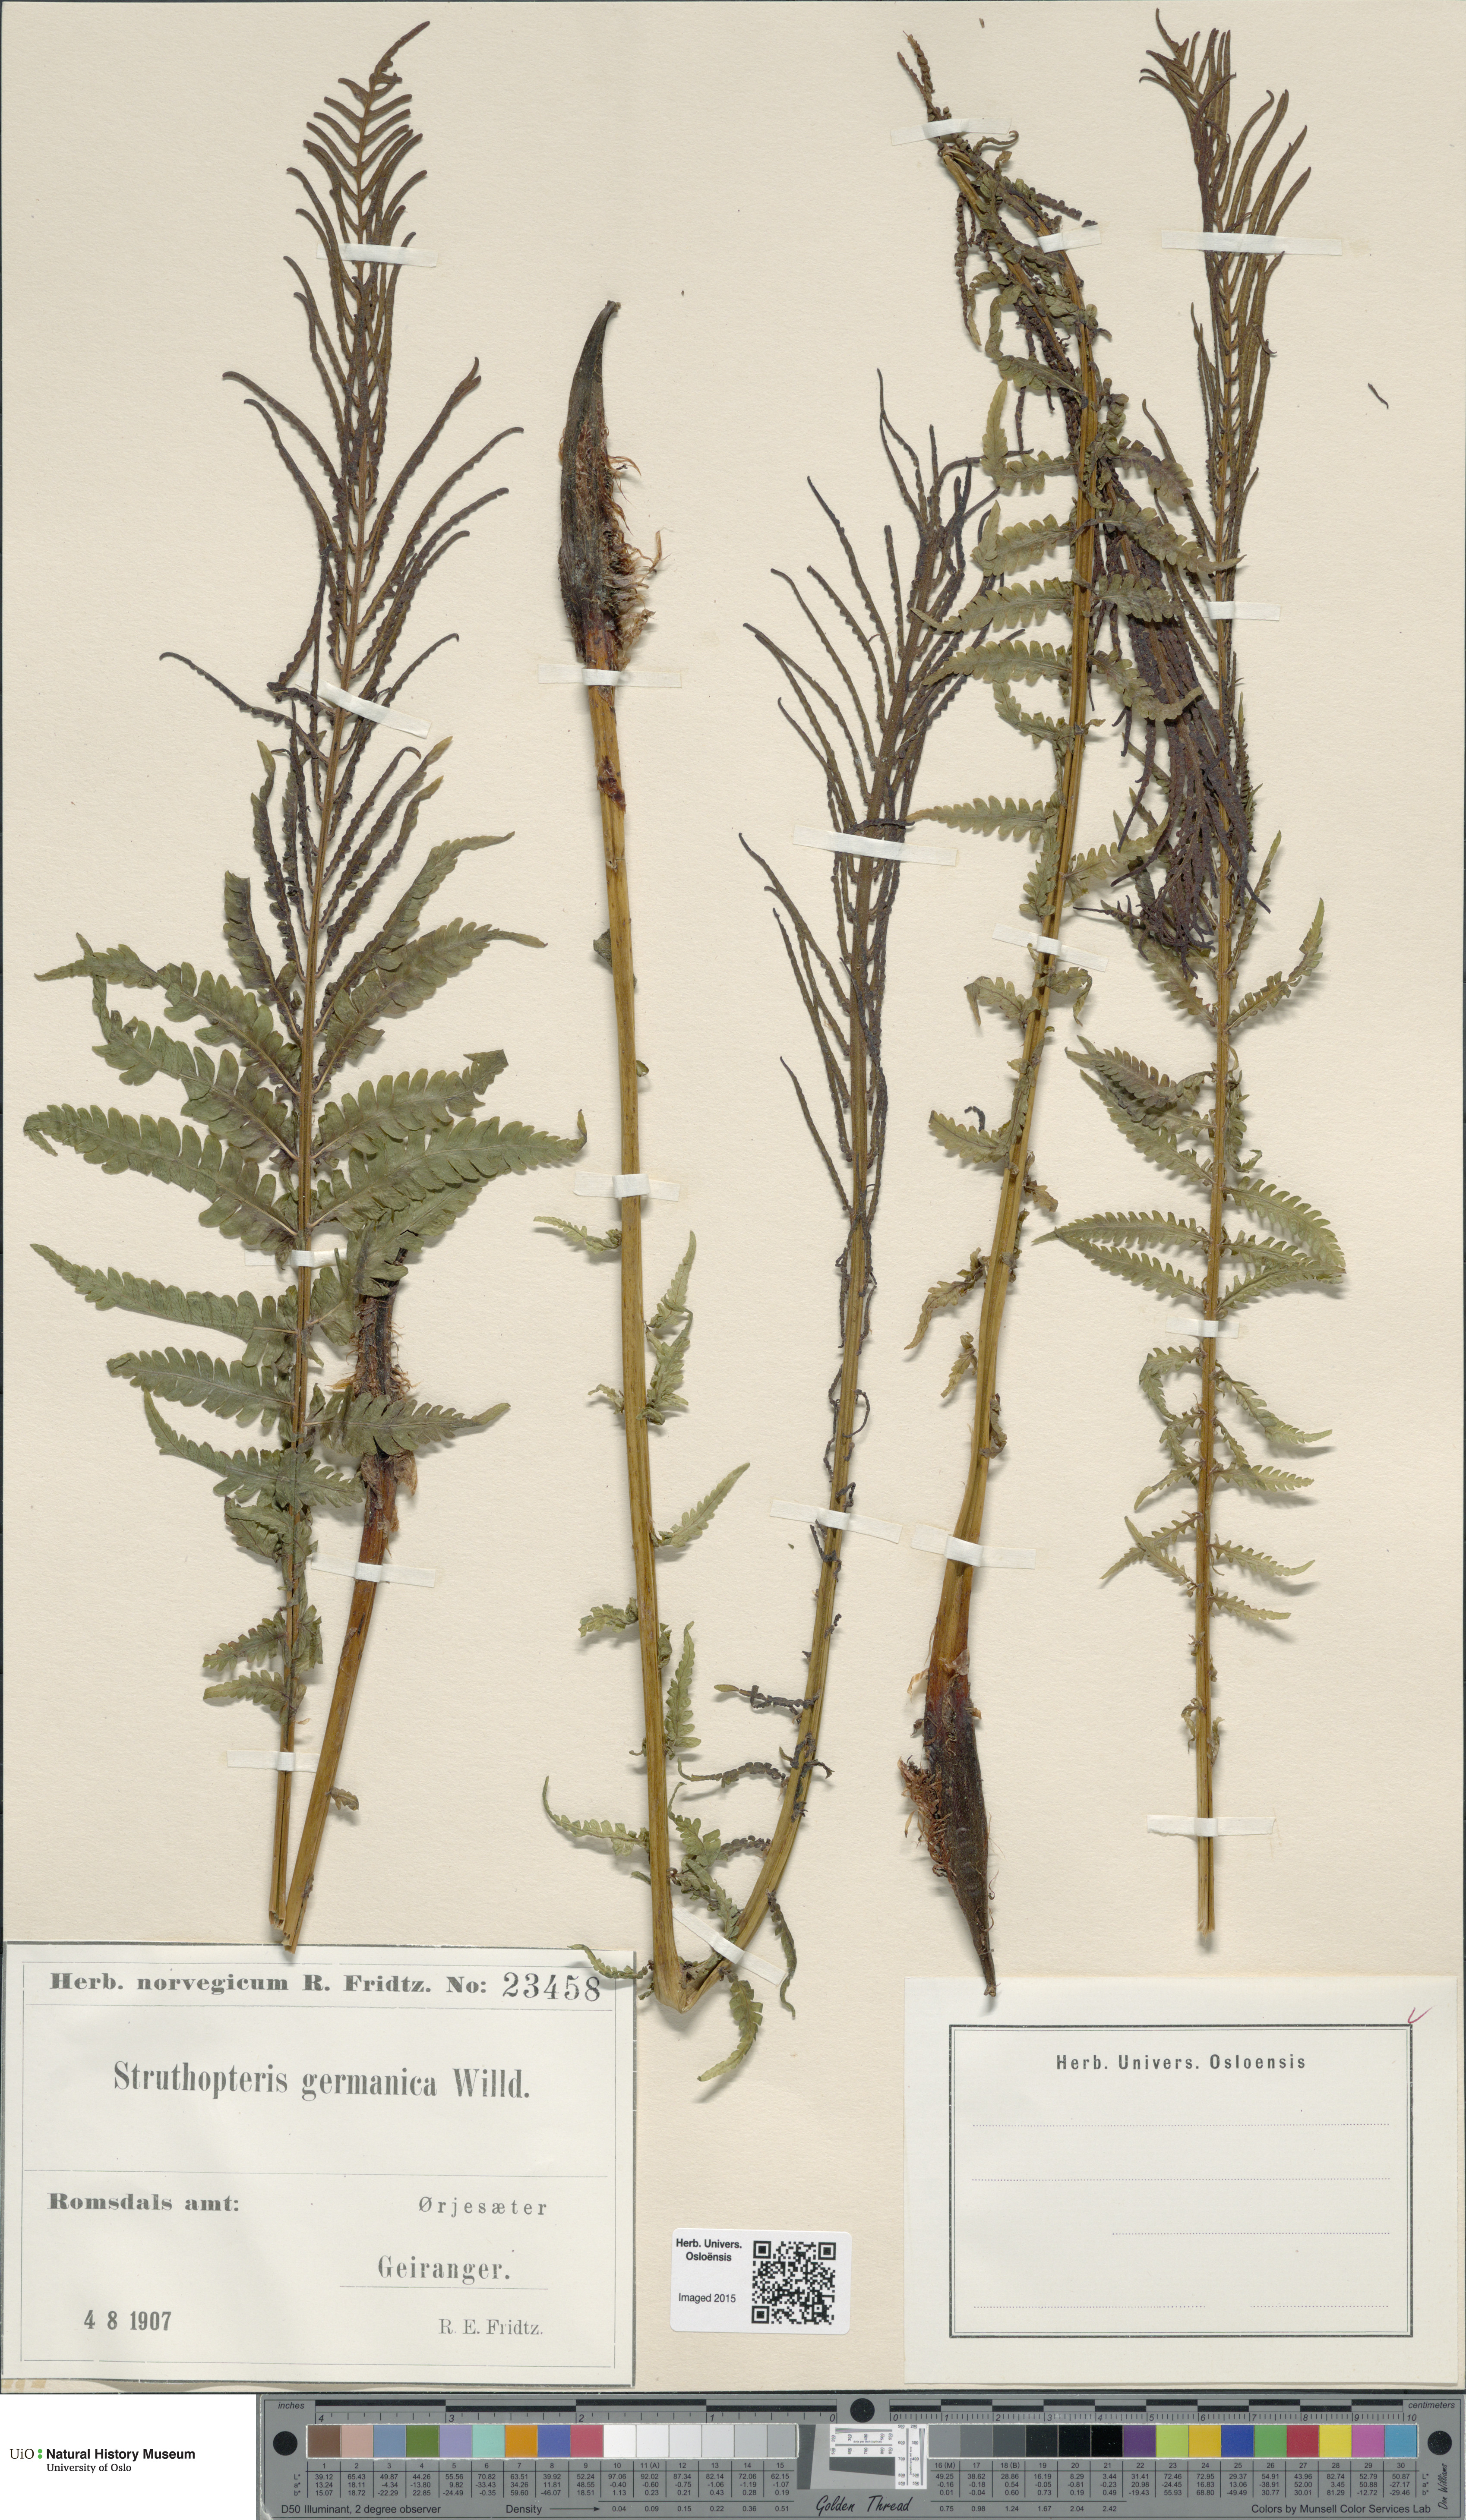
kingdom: Plantae
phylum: Tracheophyta
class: Polypodiopsida
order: Polypodiales
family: Onocleaceae
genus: Matteuccia
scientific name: Matteuccia struthiopteris
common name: Ostrich fern
